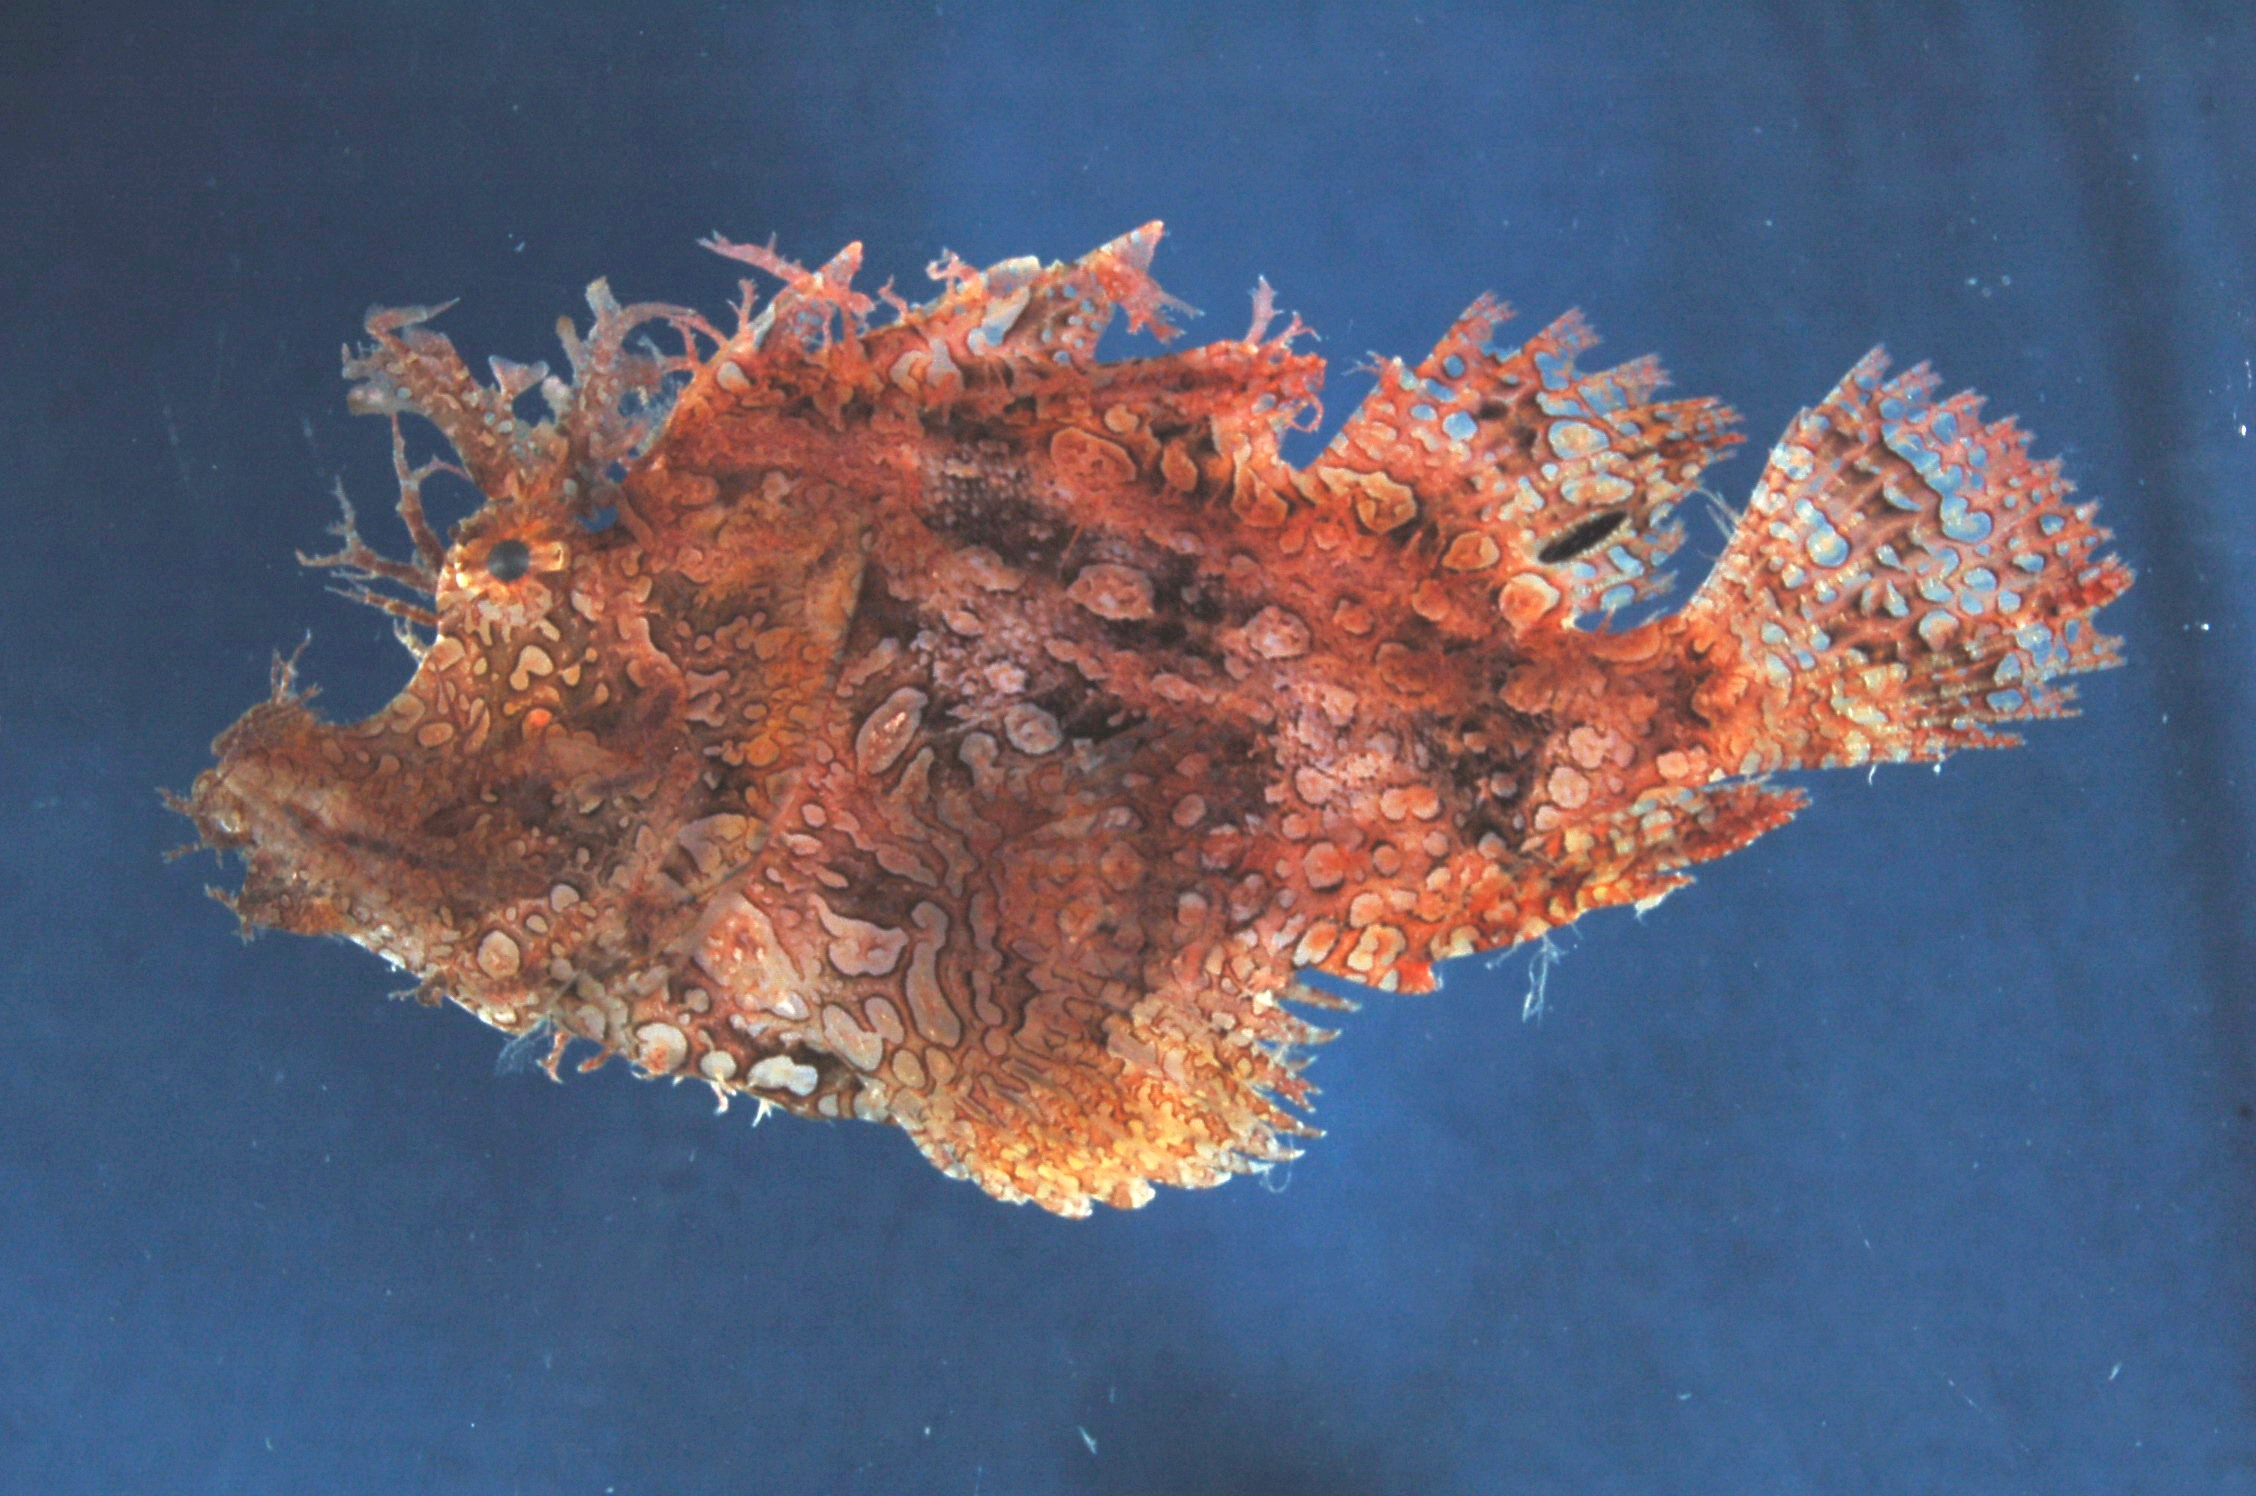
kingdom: Animalia
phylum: Chordata
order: Scorpaeniformes
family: Scorpaenidae
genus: Rhinopias
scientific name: Rhinopias frondosa
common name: Weedy scorpionfish
